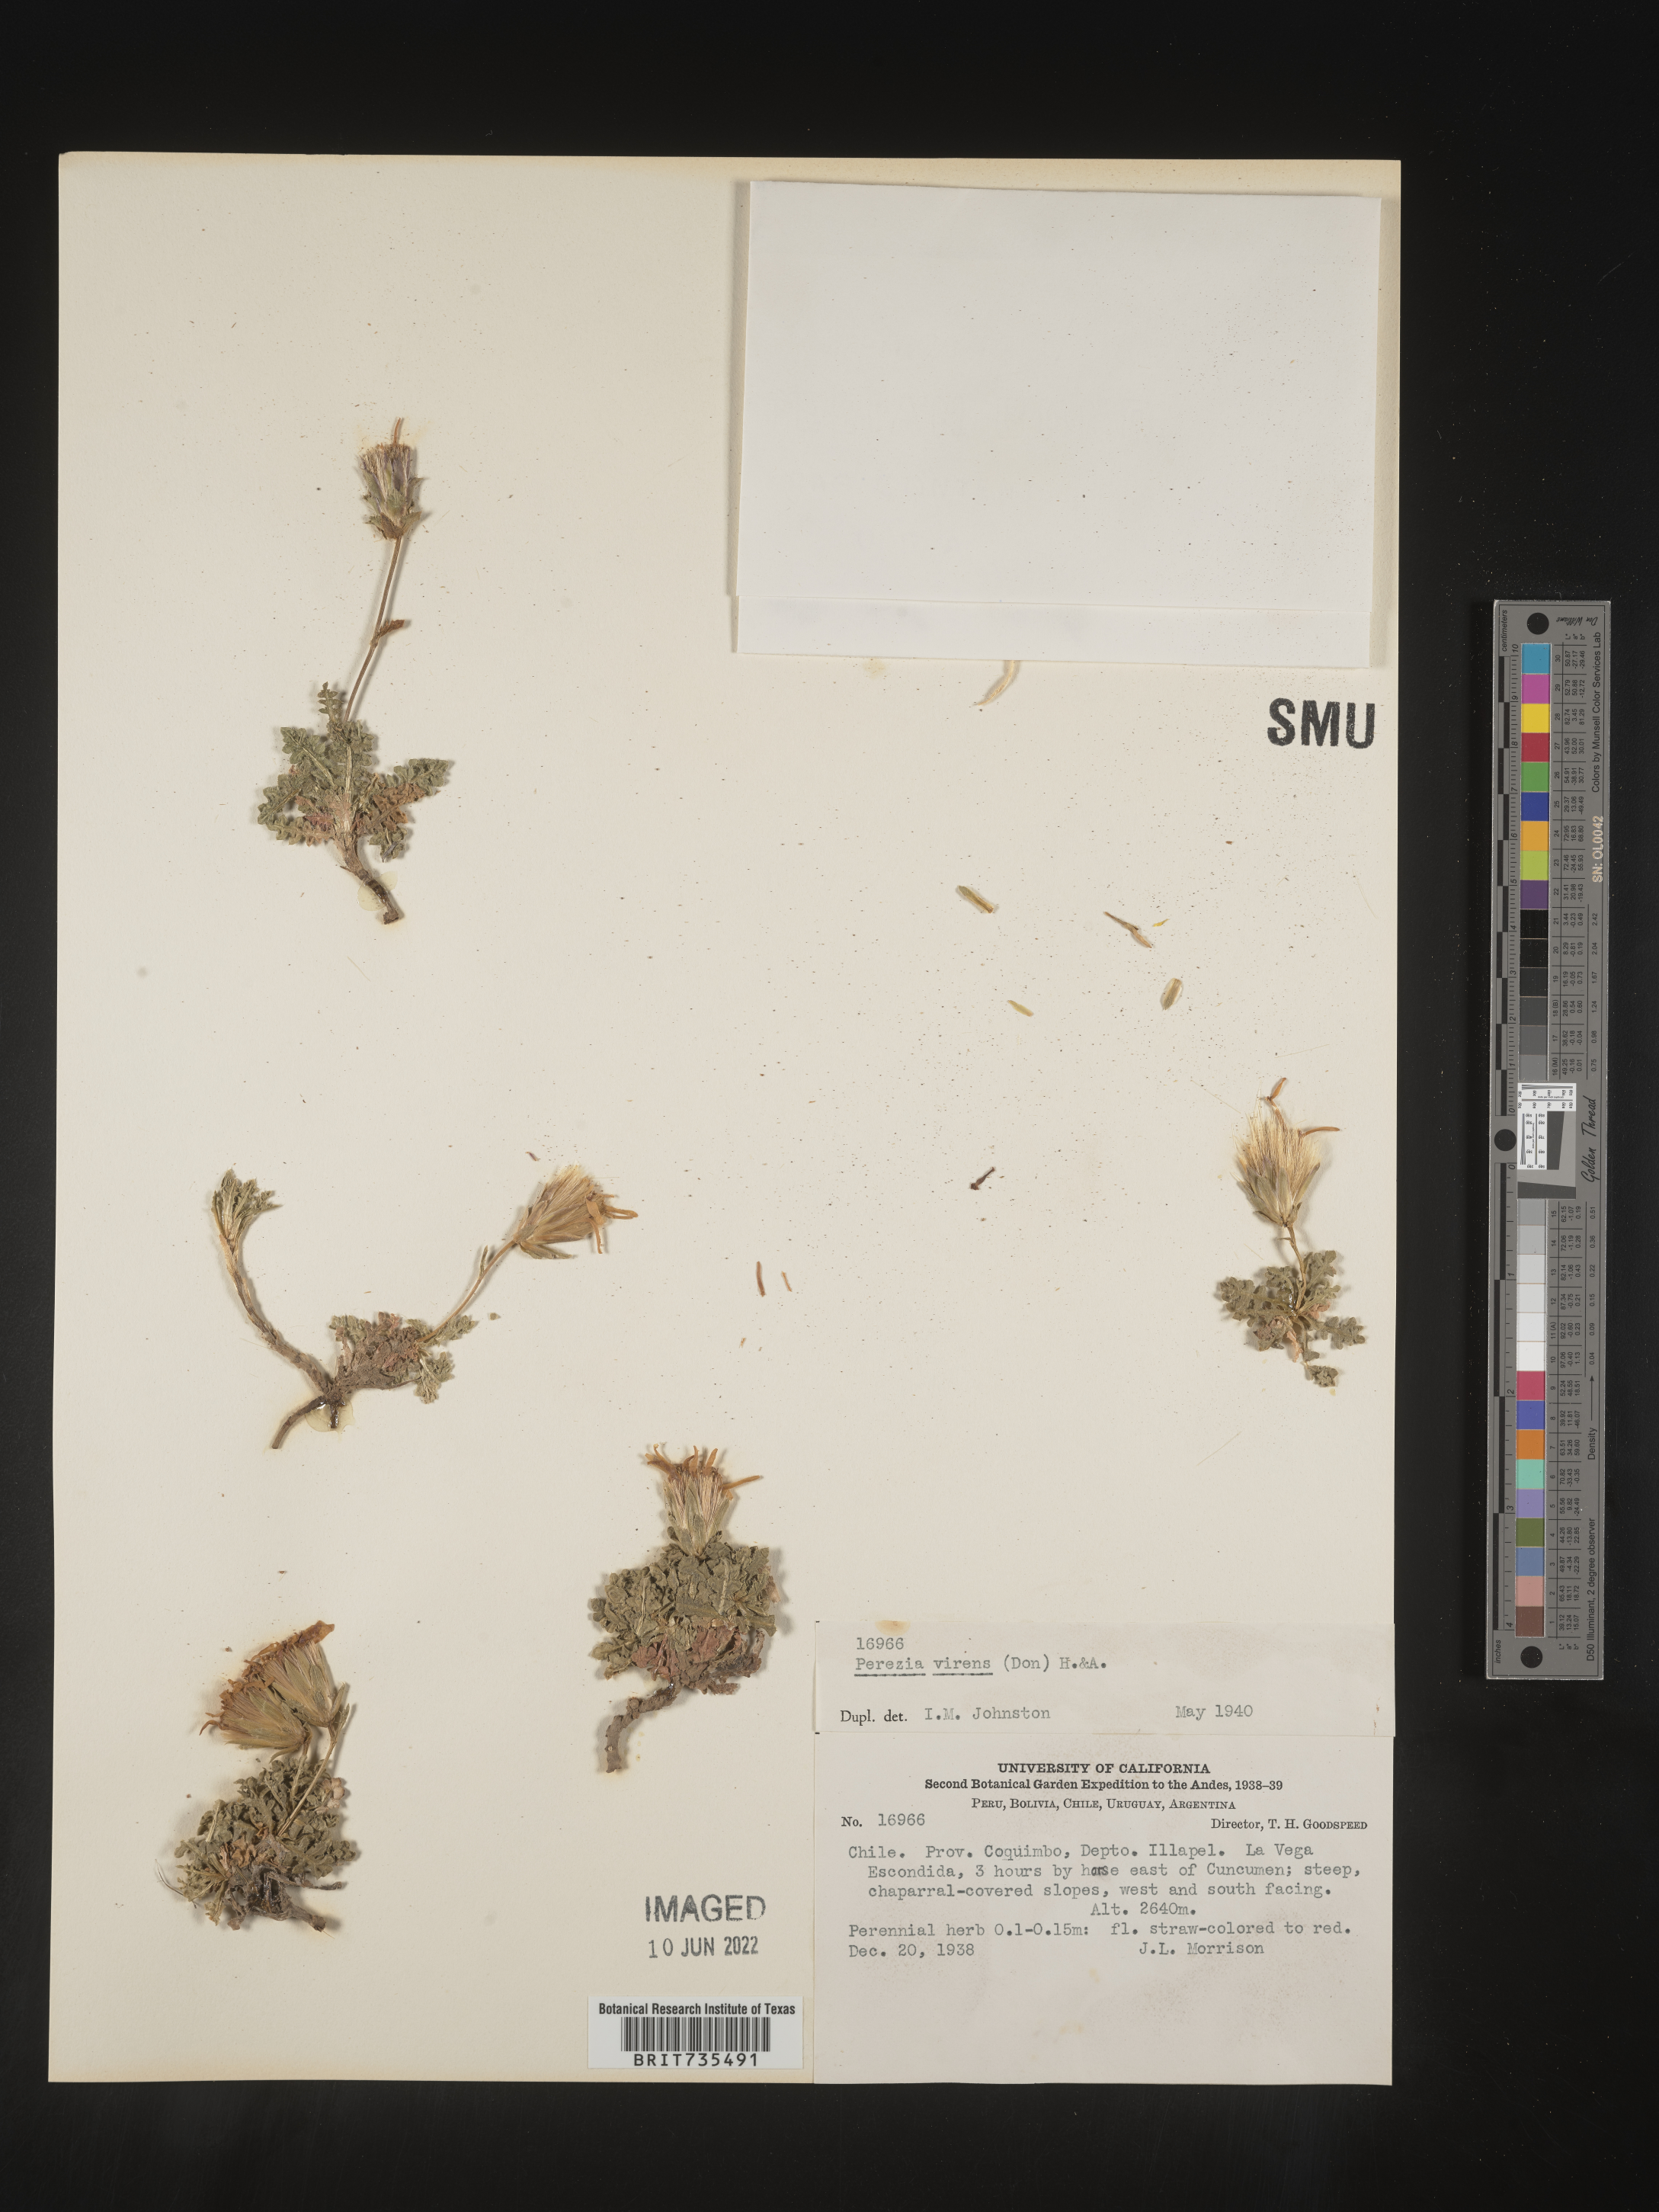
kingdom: Plantae
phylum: Tracheophyta
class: Magnoliopsida
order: Asterales
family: Asteraceae
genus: Perezia
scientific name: Perezia
